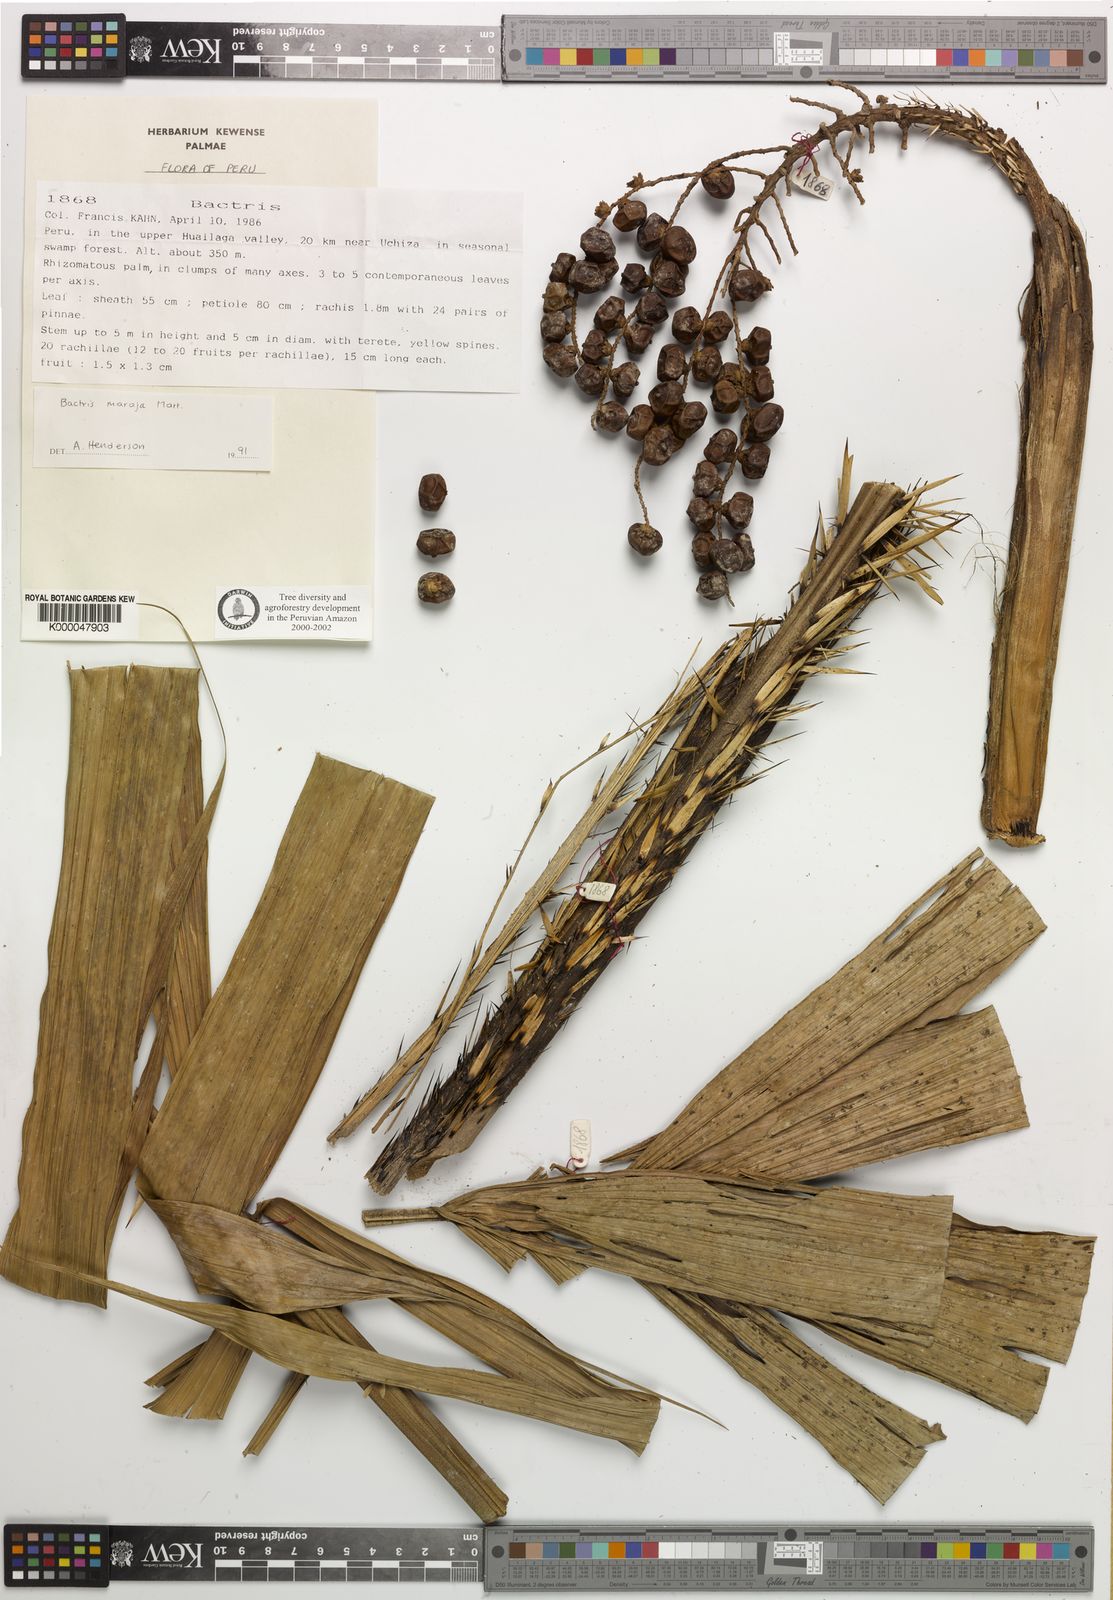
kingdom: Plantae
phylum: Tracheophyta
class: Liliopsida
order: Arecales
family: Arecaceae
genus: Bactris
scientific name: Bactris maraja
